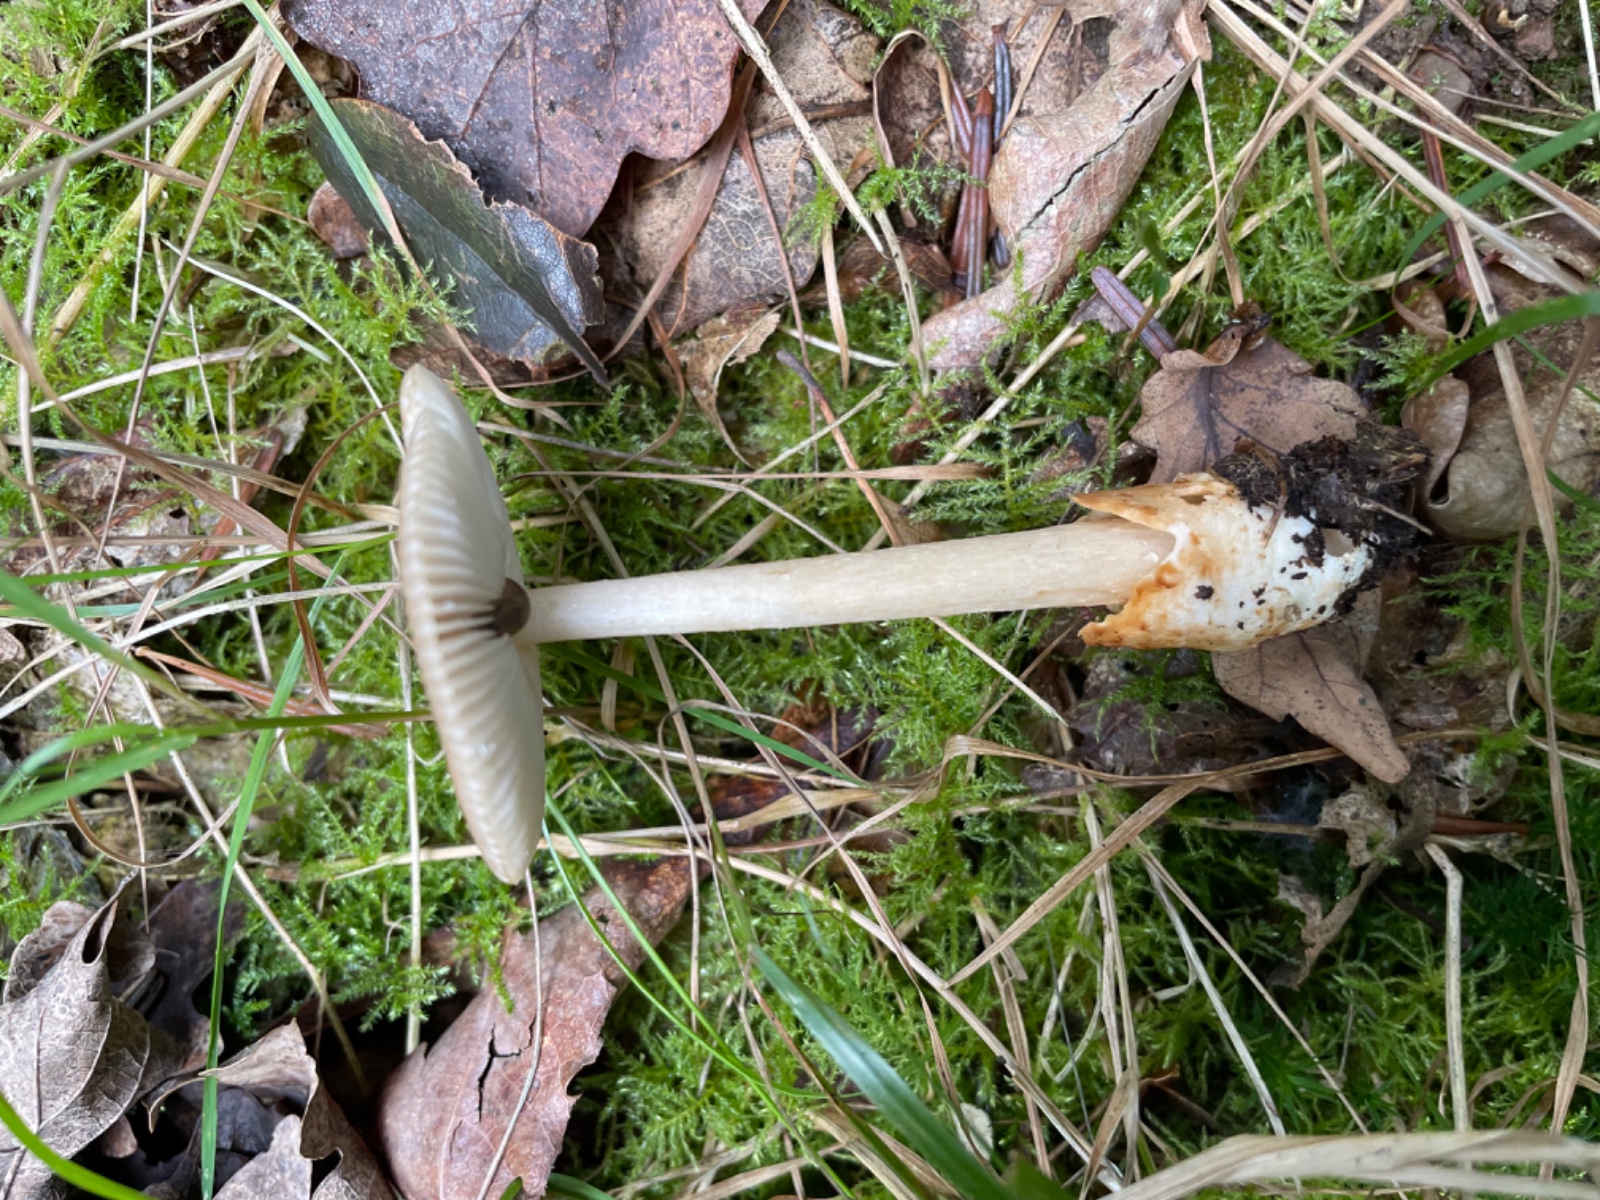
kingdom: Fungi
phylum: Basidiomycota
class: Agaricomycetes
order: Agaricales
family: Amanitaceae
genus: Amanita
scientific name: Amanita fulva
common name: brun kam-fluesvamp
